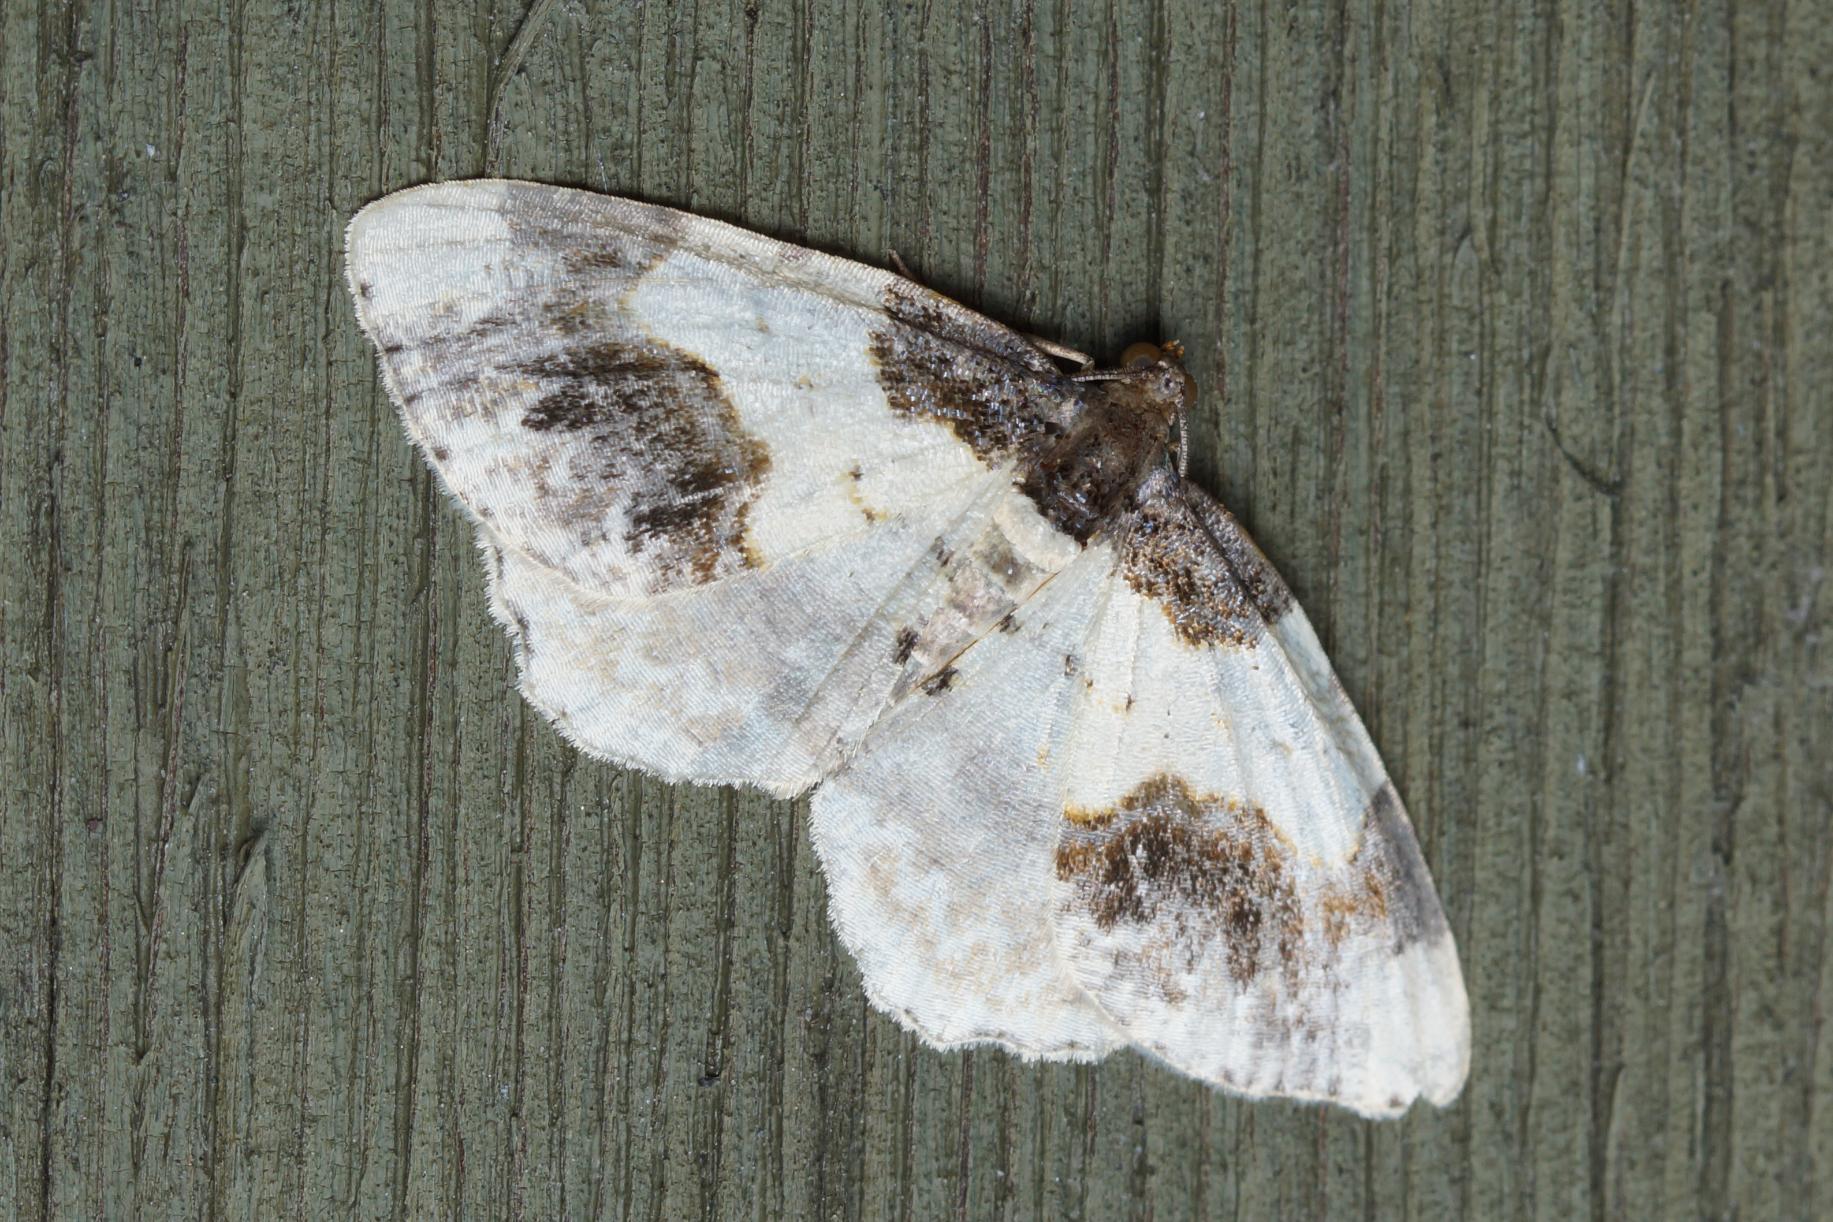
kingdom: Animalia
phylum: Arthropoda
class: Insecta
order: Lepidoptera
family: Geometridae
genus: Ligdia
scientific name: Ligdia adustata
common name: Benvedmåler
